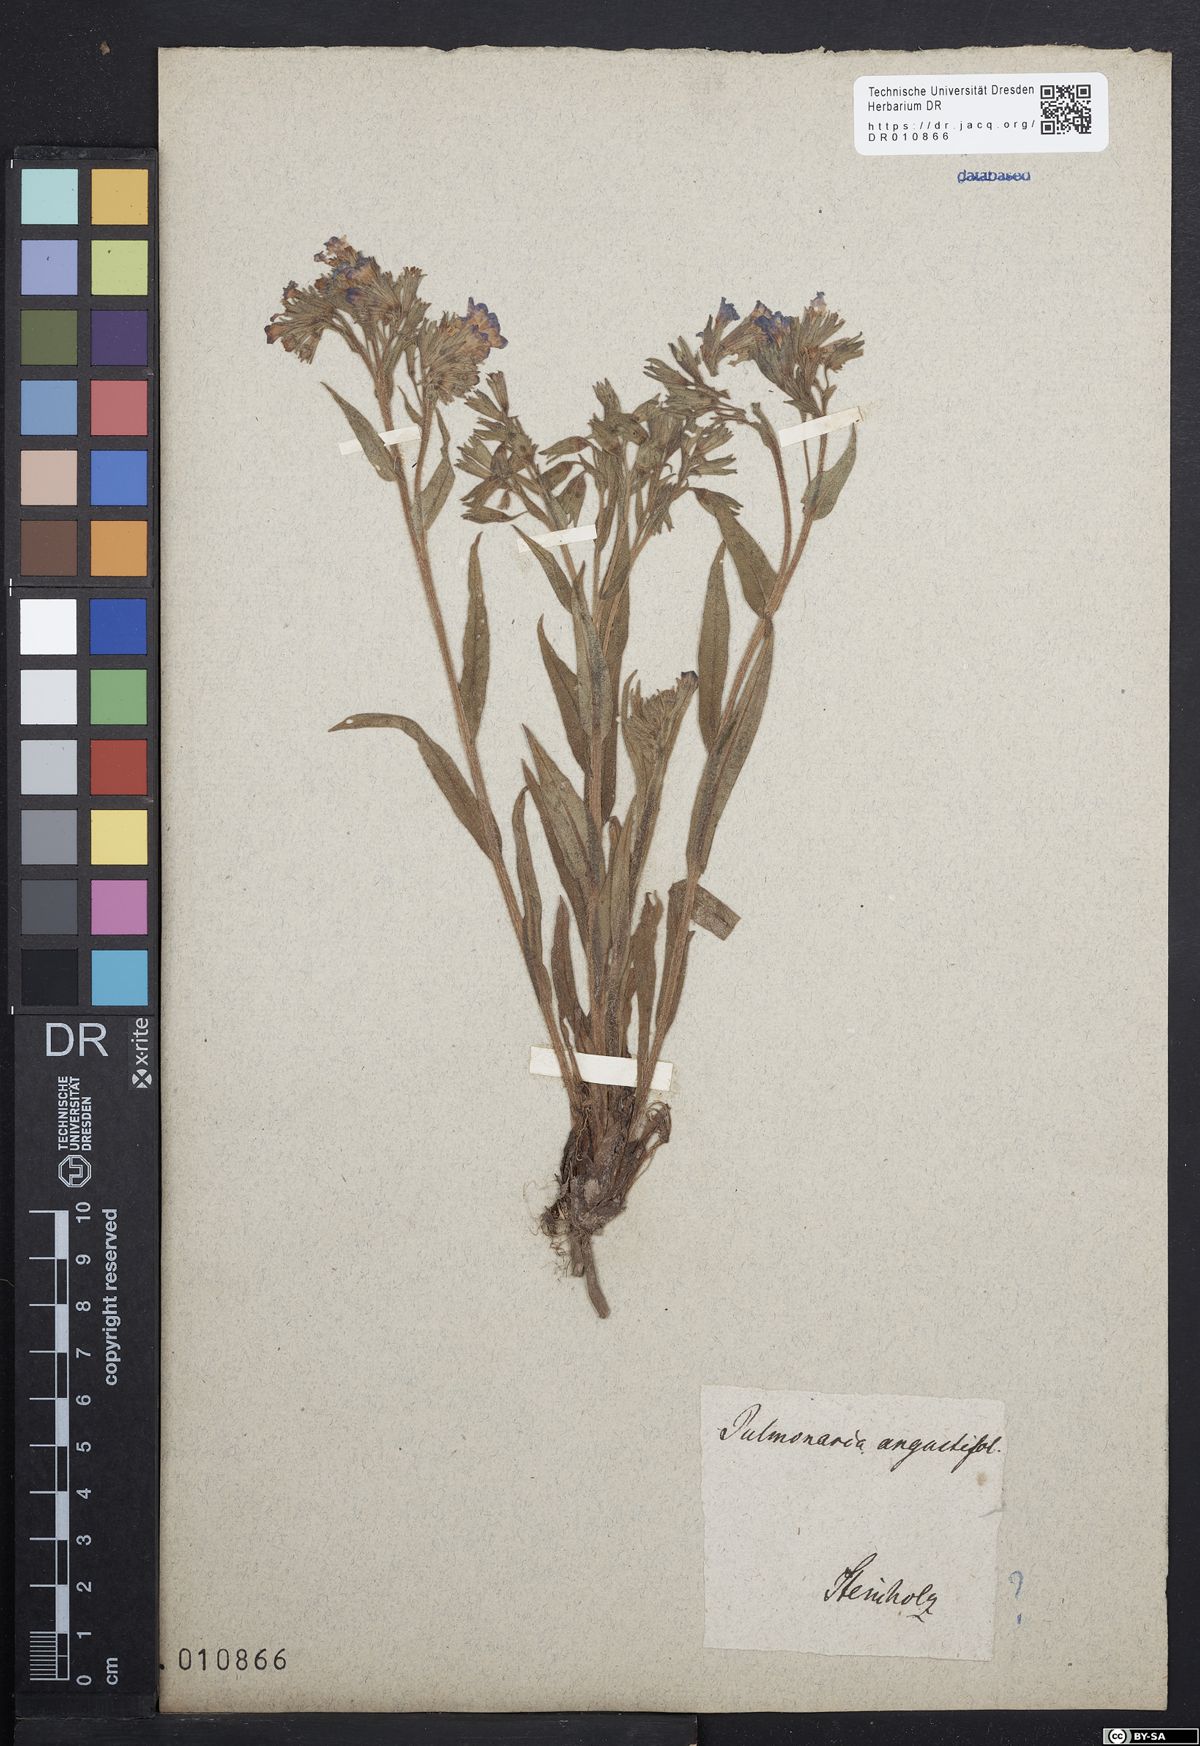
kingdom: Plantae
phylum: Tracheophyta
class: Magnoliopsida
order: Boraginales
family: Boraginaceae
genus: Pulmonaria
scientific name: Pulmonaria angustifolia
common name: Blue cowslip
